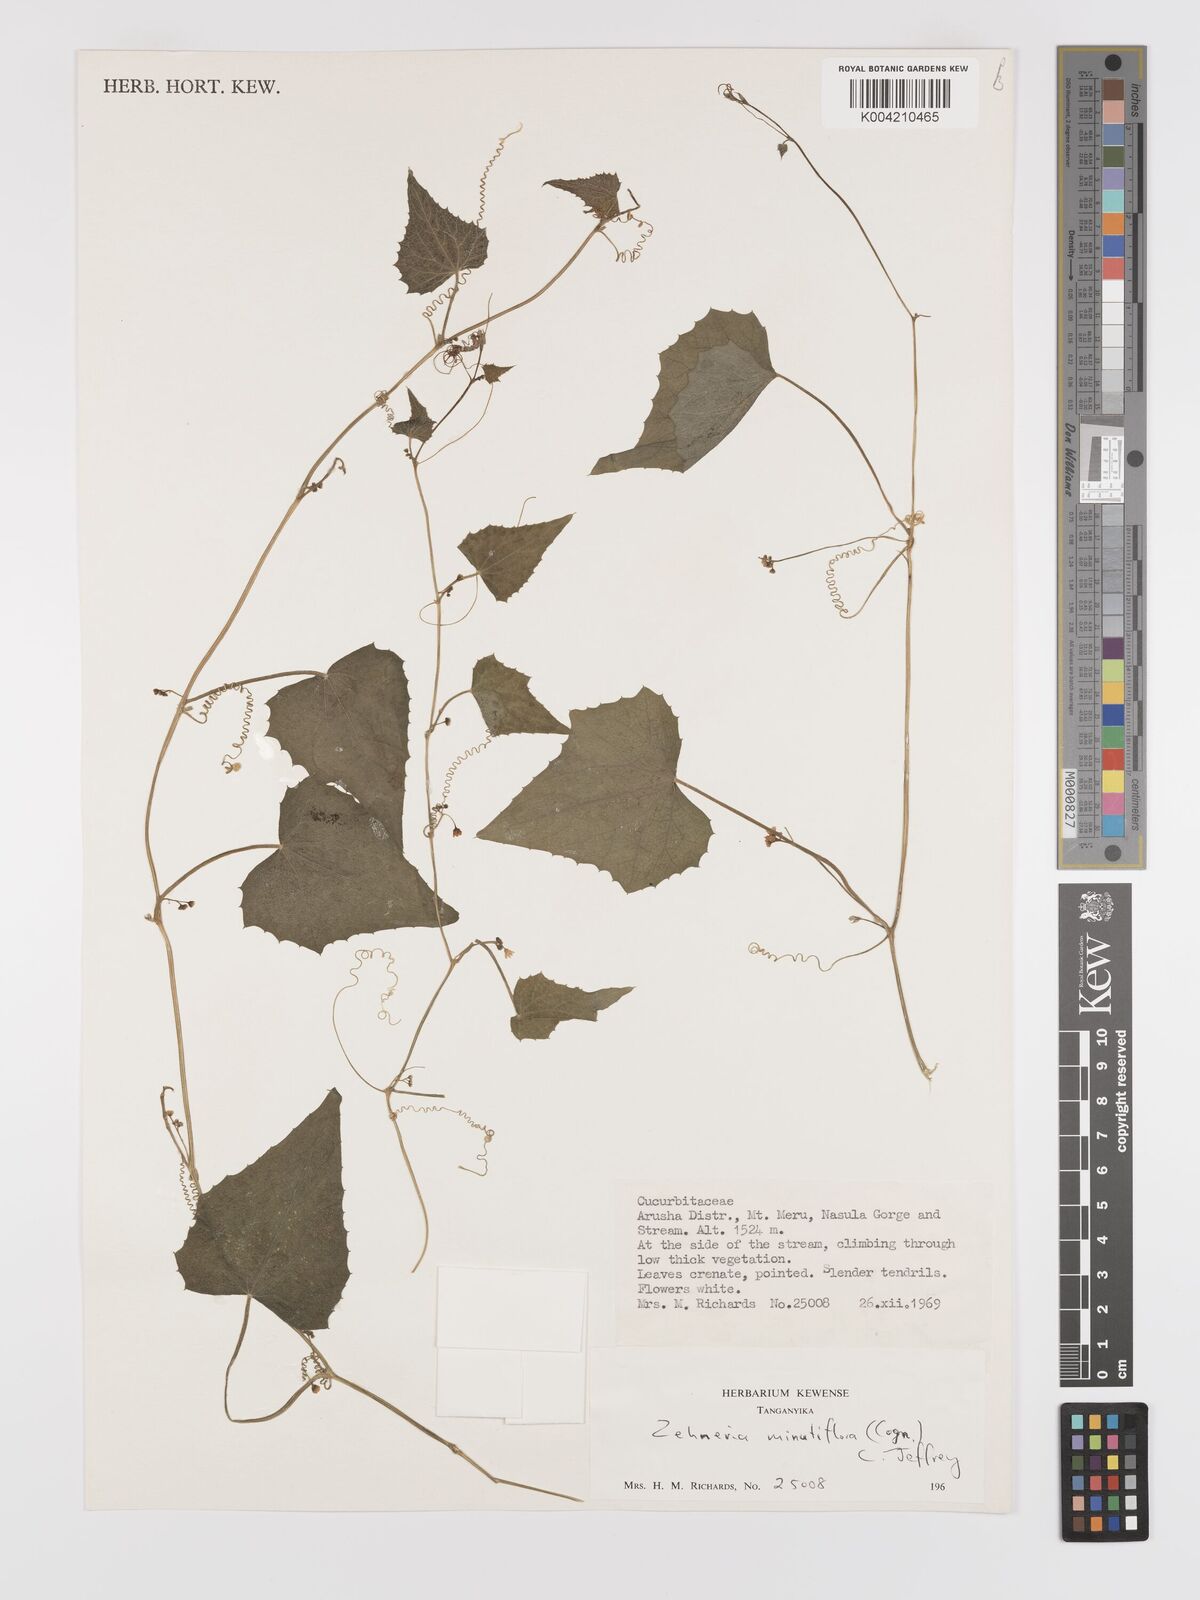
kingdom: Plantae
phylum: Tracheophyta
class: Magnoliopsida
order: Cucurbitales
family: Cucurbitaceae
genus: Zehneria
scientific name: Zehneria minutiflora
